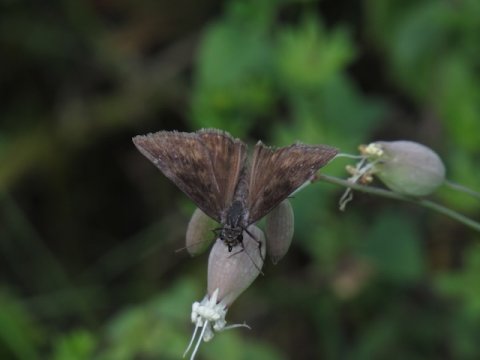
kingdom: Animalia
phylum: Arthropoda
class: Insecta
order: Lepidoptera
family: Hesperiidae
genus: Gesta
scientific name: Gesta
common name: Wild Indigo Duskywing
